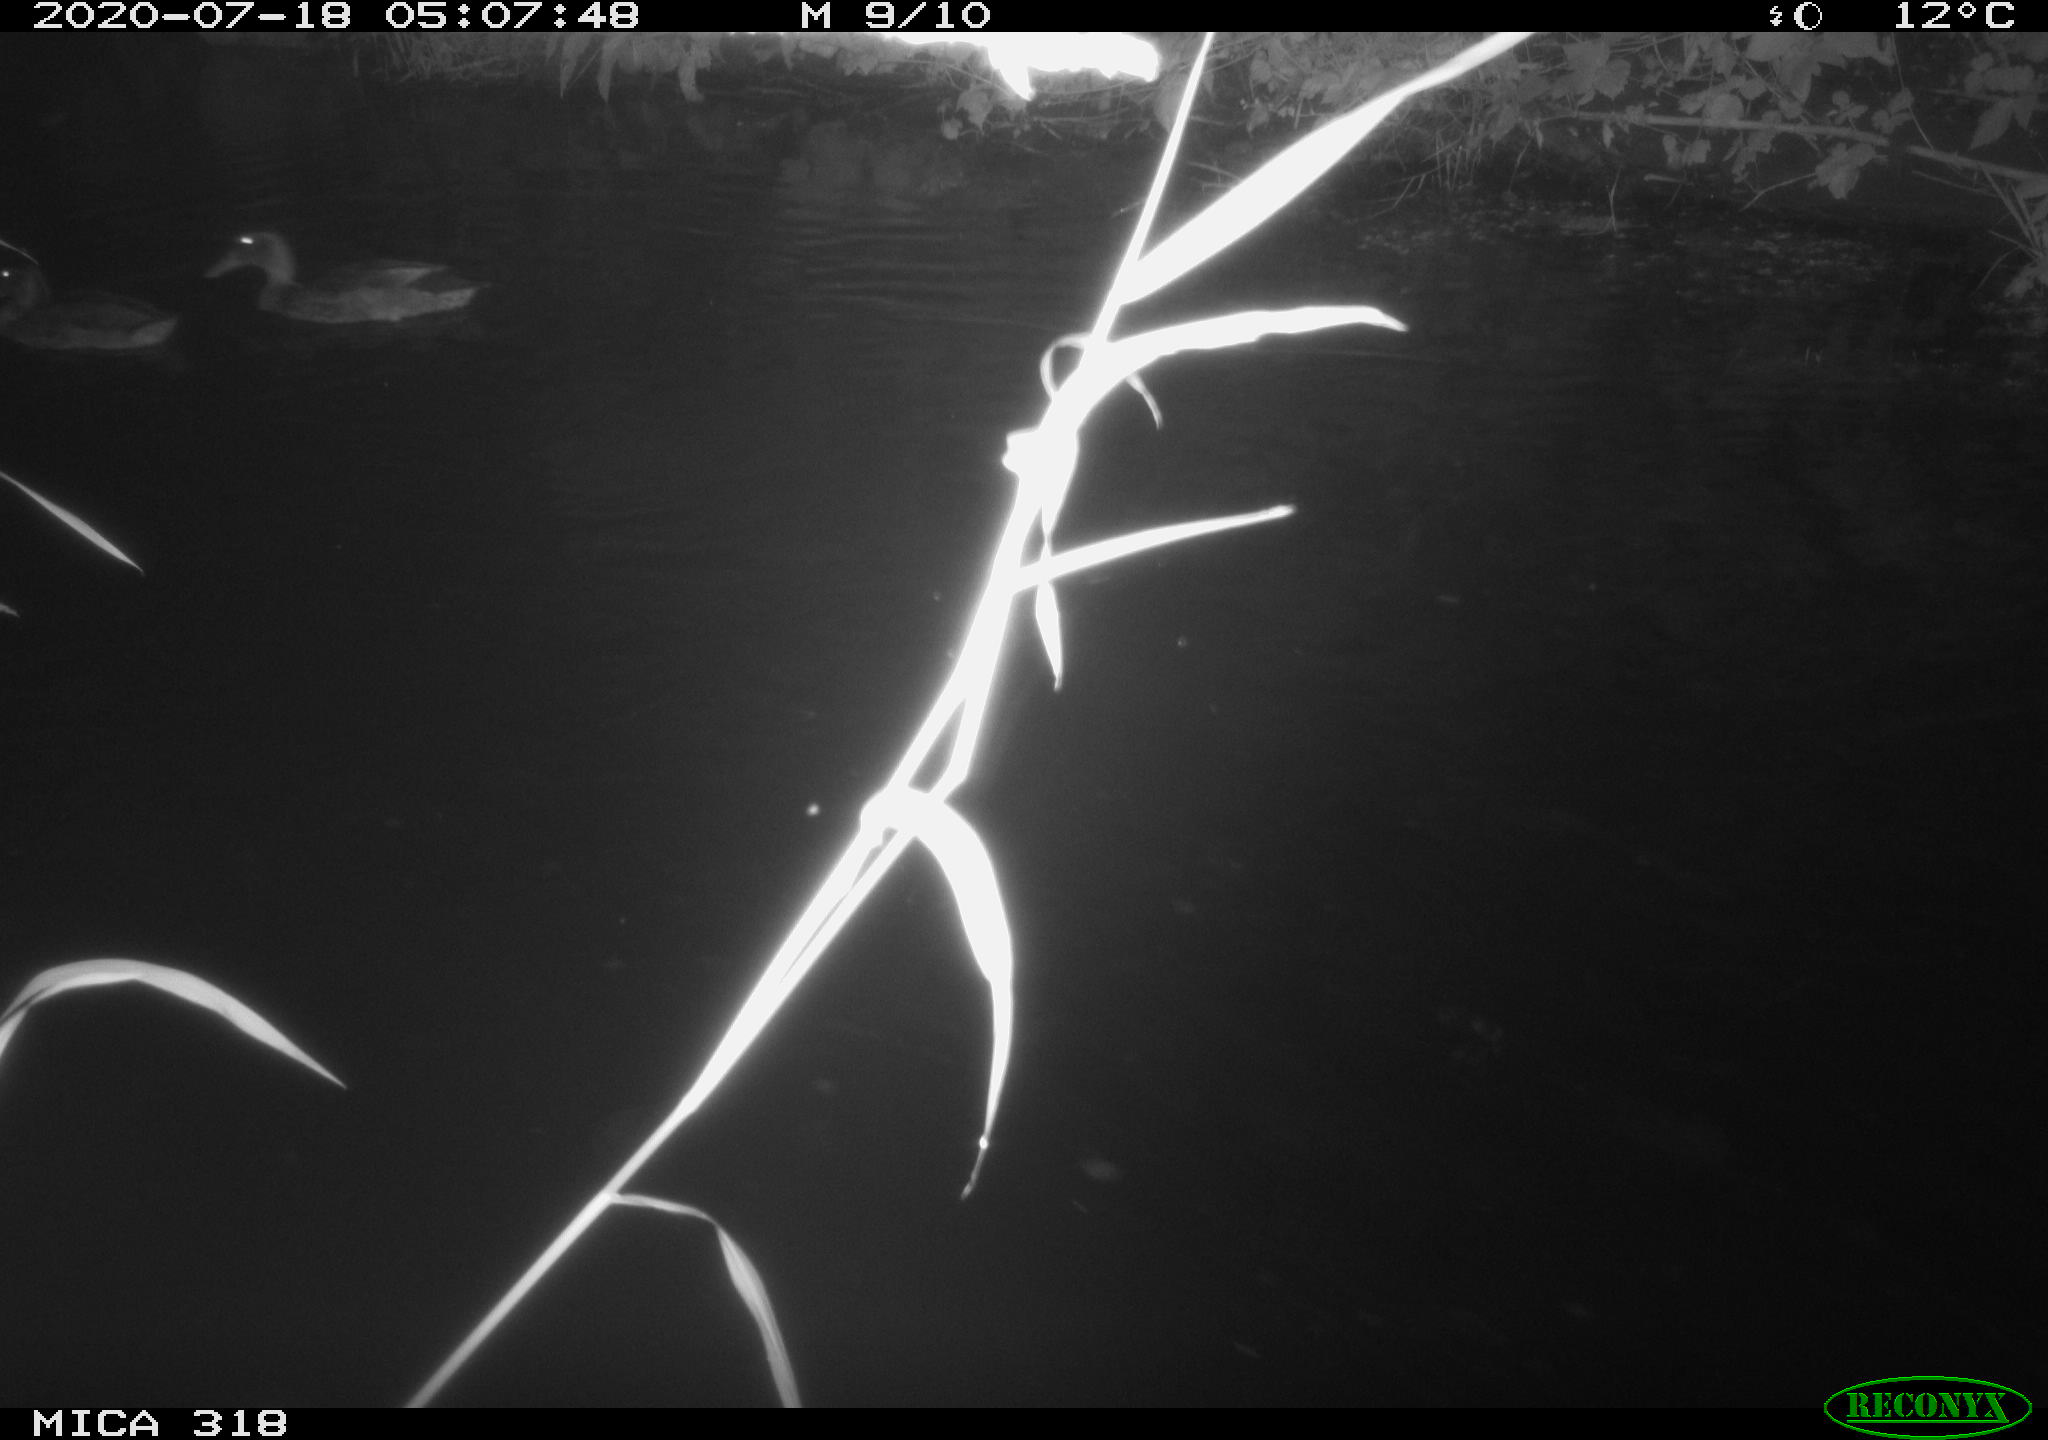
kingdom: Animalia
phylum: Chordata
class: Aves
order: Anseriformes
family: Anatidae
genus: Anas
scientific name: Anas platyrhynchos
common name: Mallard
